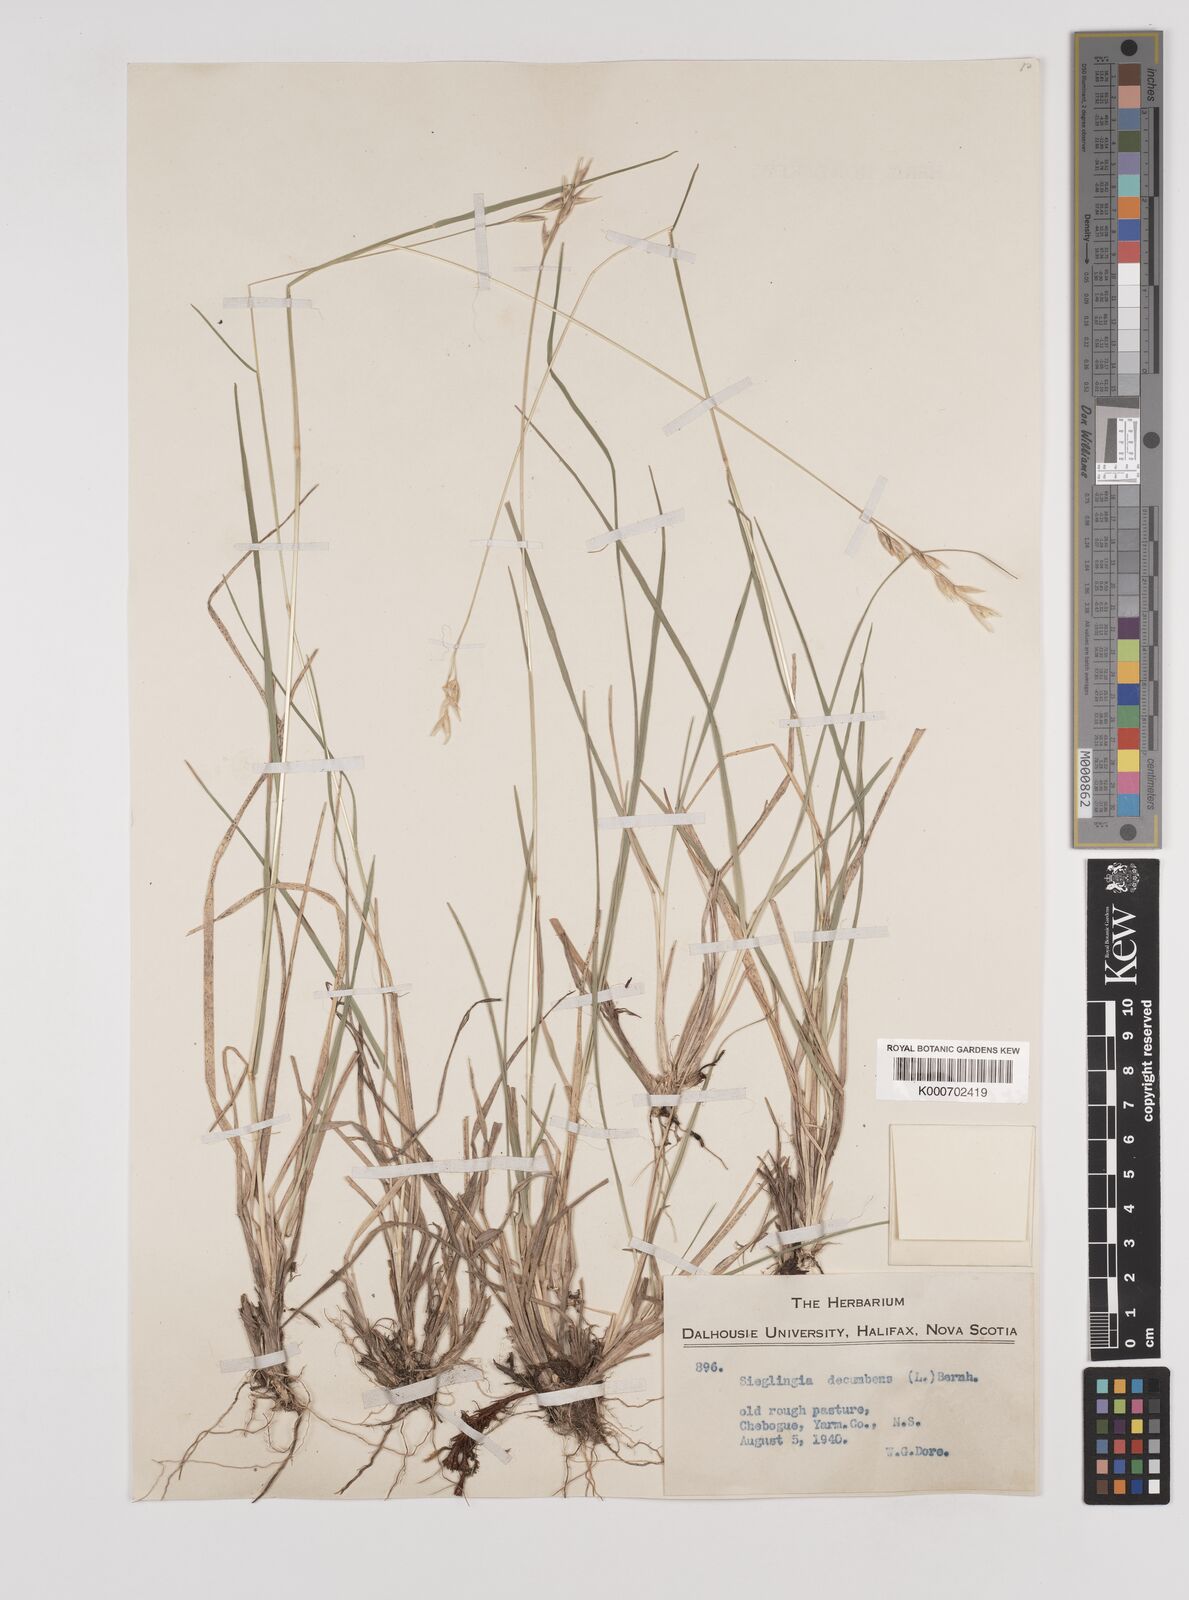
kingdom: Plantae
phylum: Tracheophyta
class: Liliopsida
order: Poales
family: Poaceae
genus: Danthonia
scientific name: Danthonia decumbens
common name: Common heathgrass
